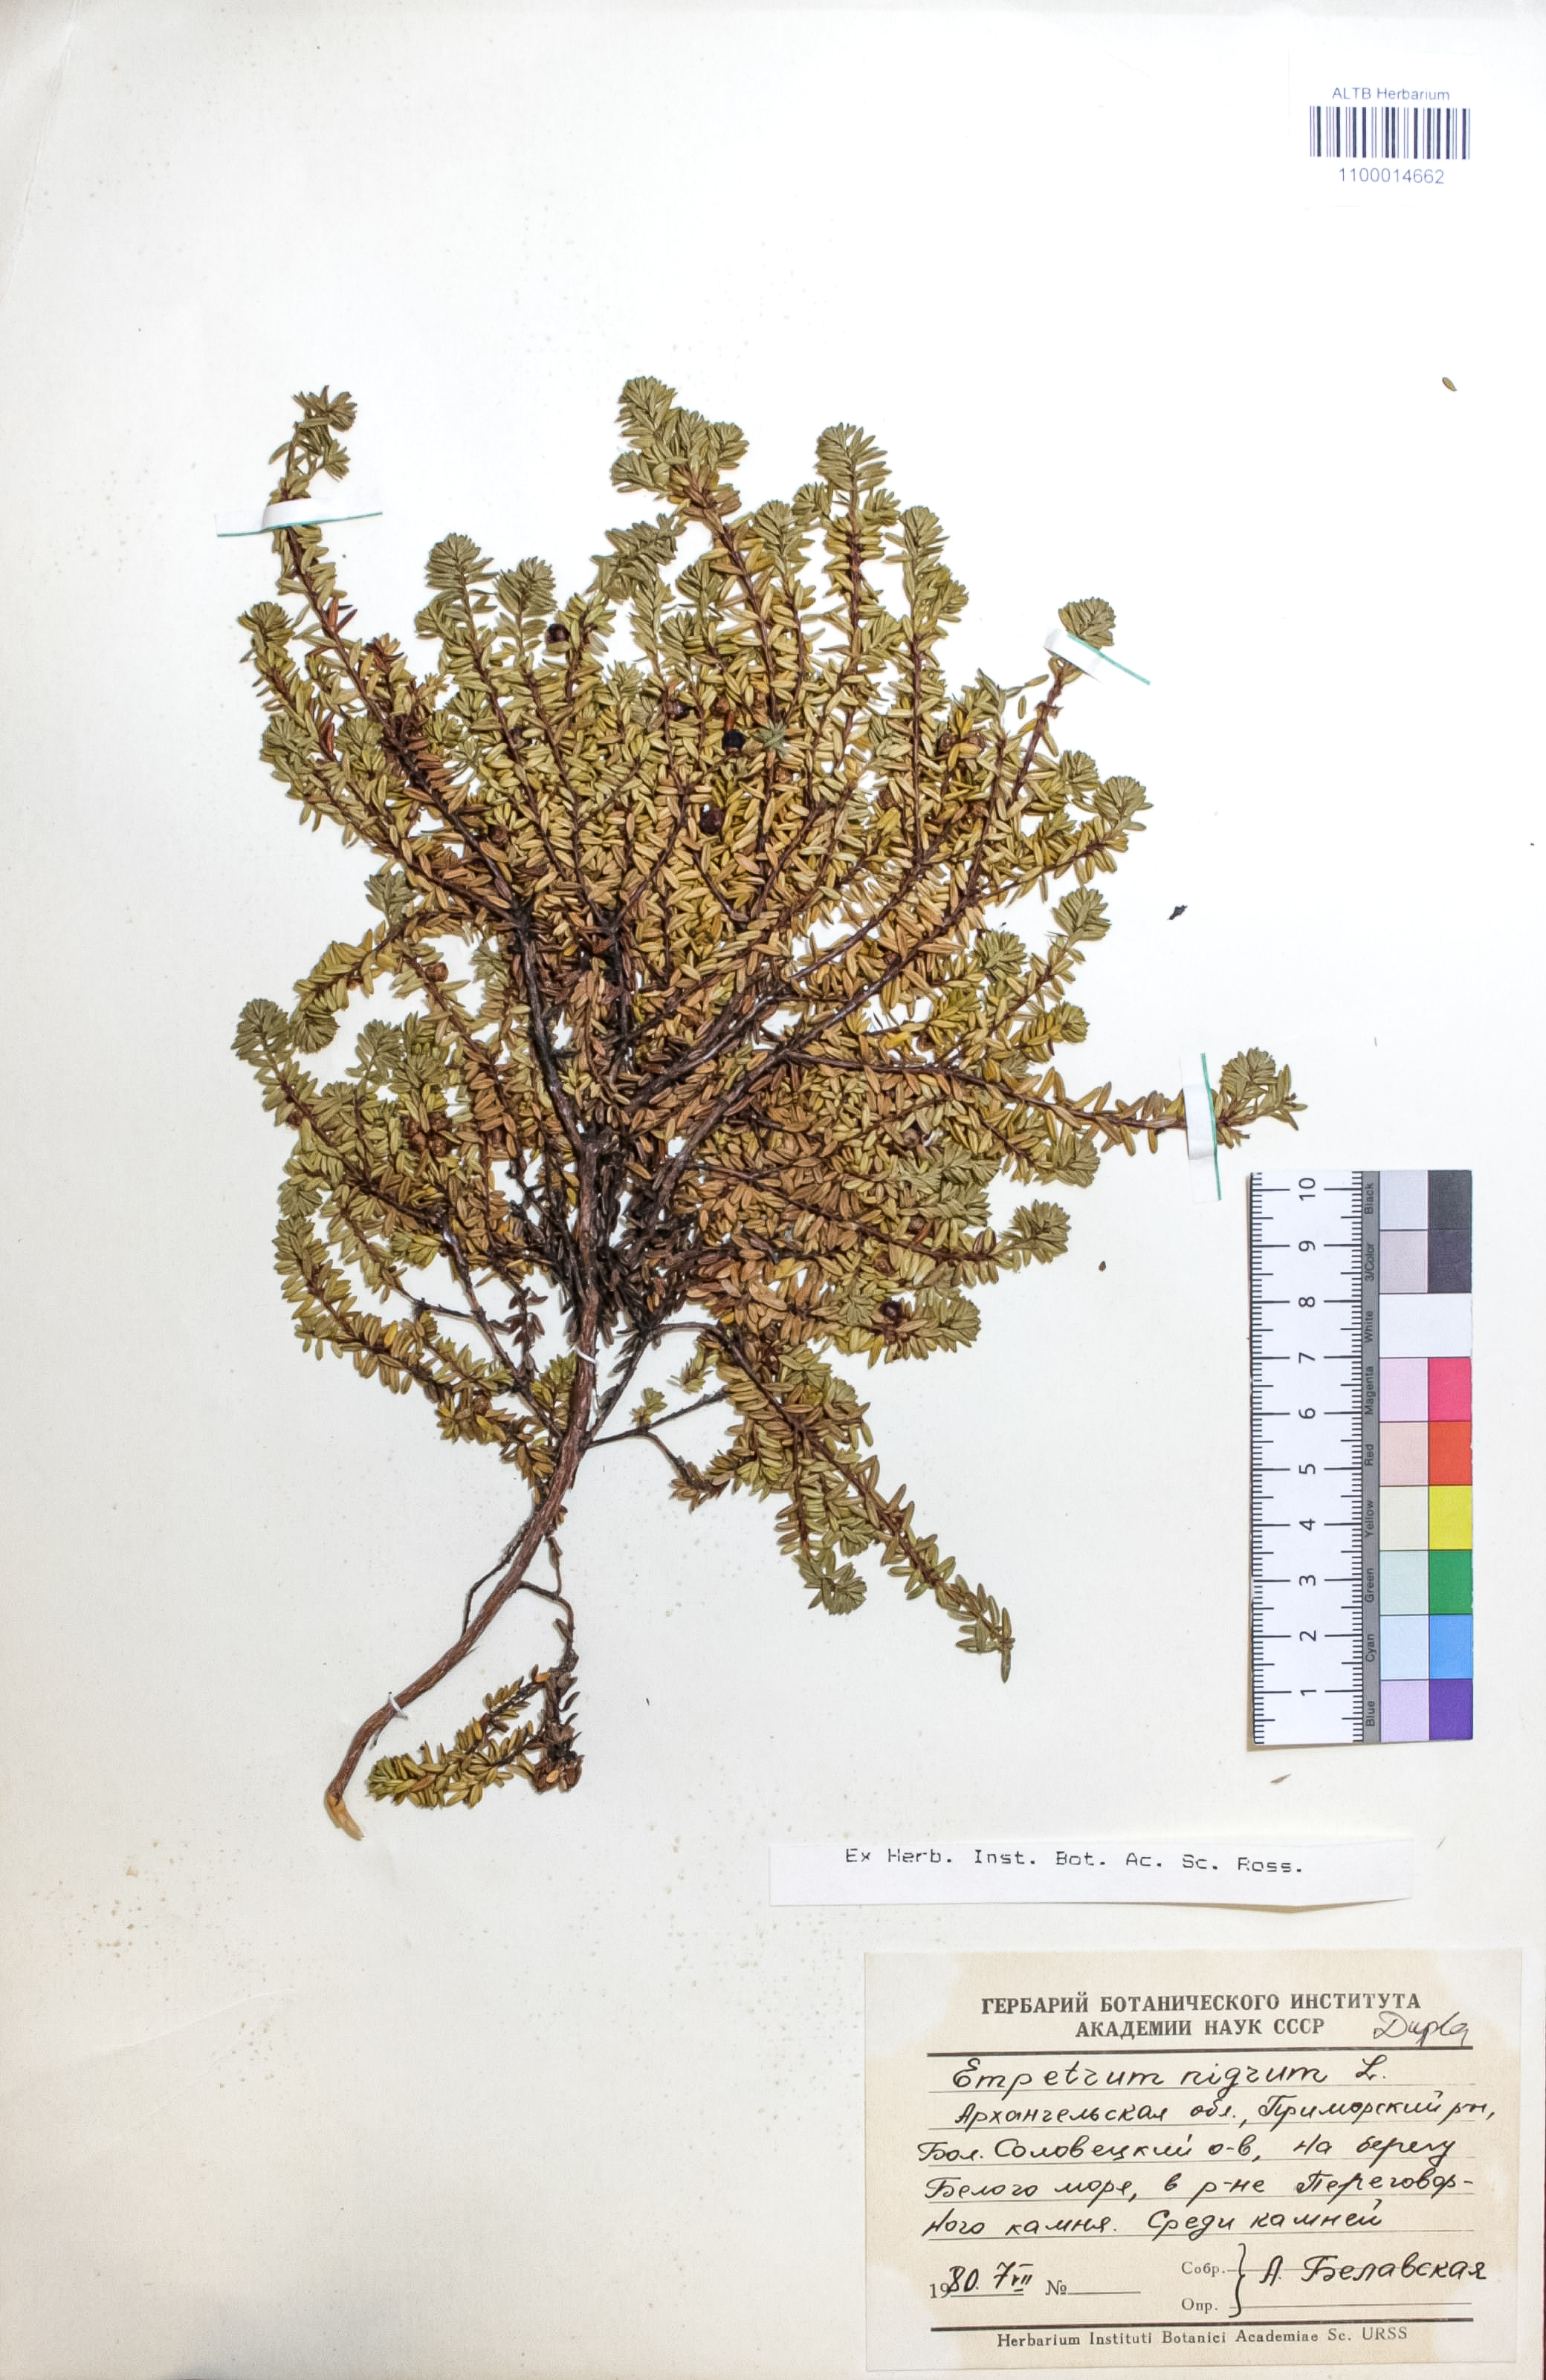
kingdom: Plantae
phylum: Tracheophyta
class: Magnoliopsida
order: Ericales
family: Ericaceae
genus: Empetrum
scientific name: Empetrum nigrum
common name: Black crowberry
